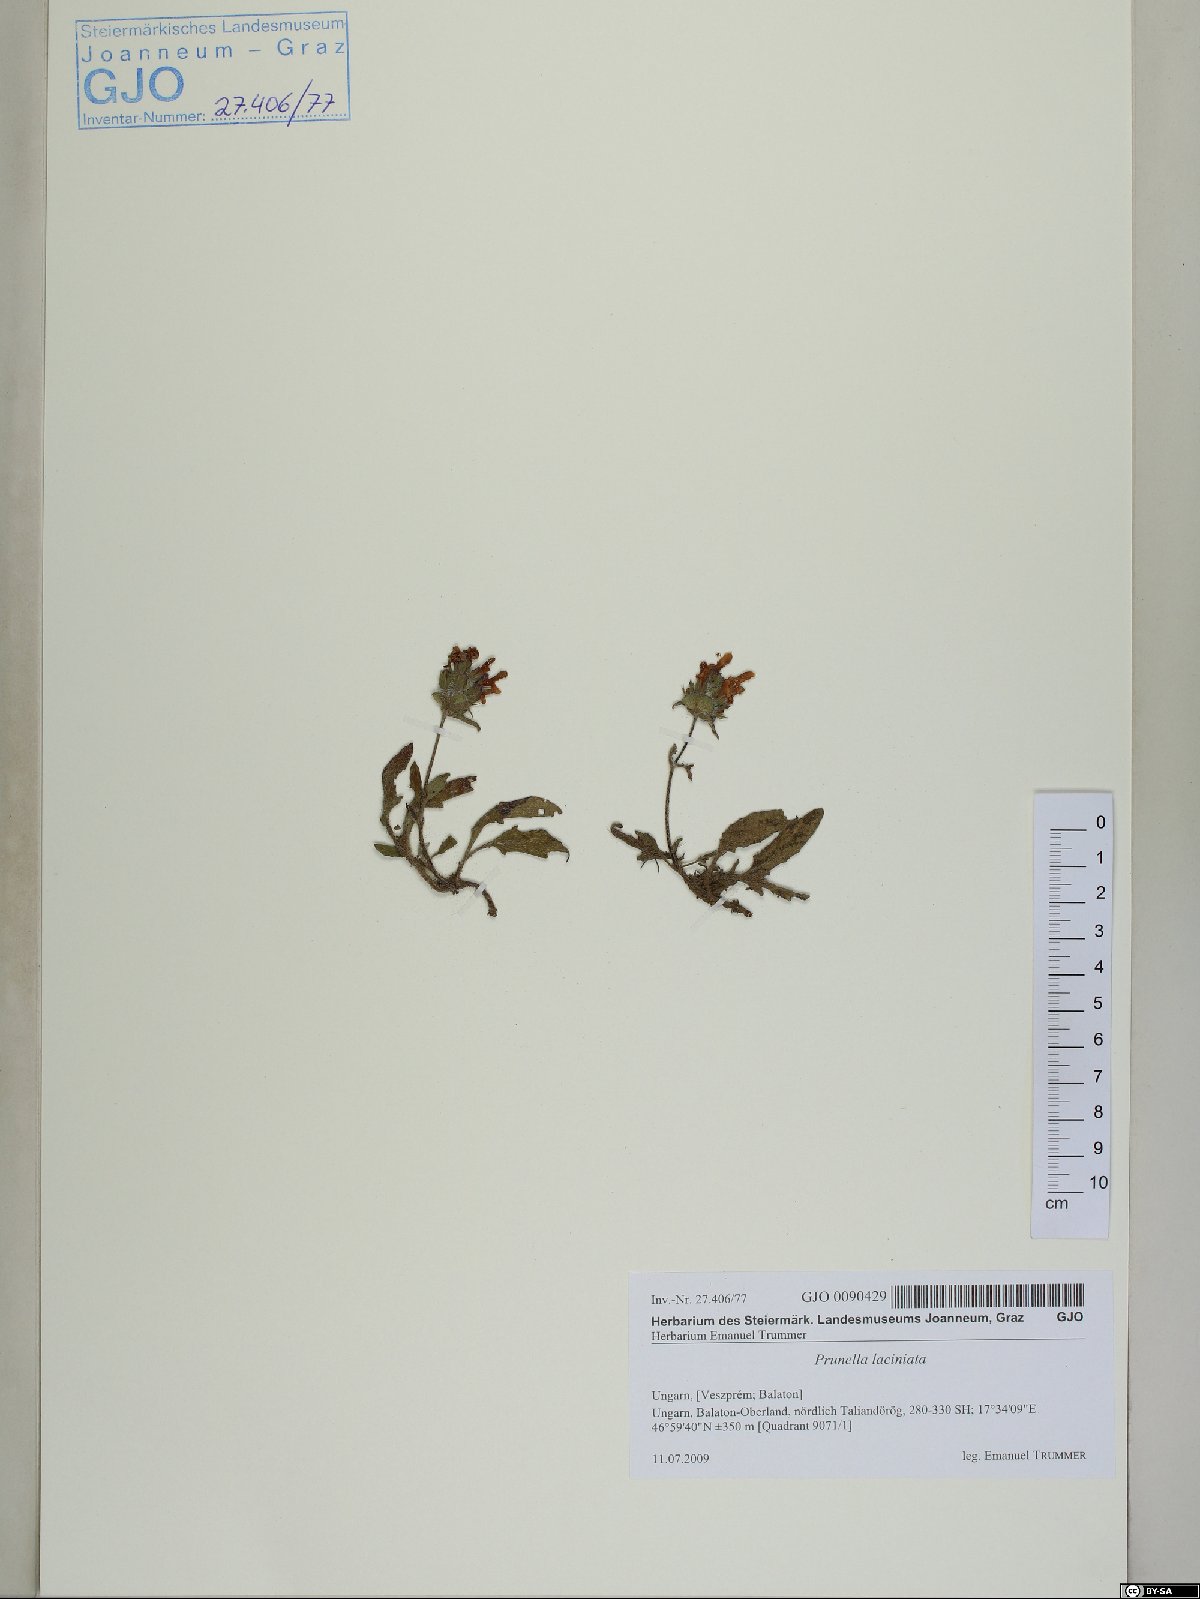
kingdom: Plantae
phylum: Tracheophyta
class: Magnoliopsida
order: Lamiales
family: Lamiaceae
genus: Prunella
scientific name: Prunella laciniata
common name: Cut-leaved selfheal
